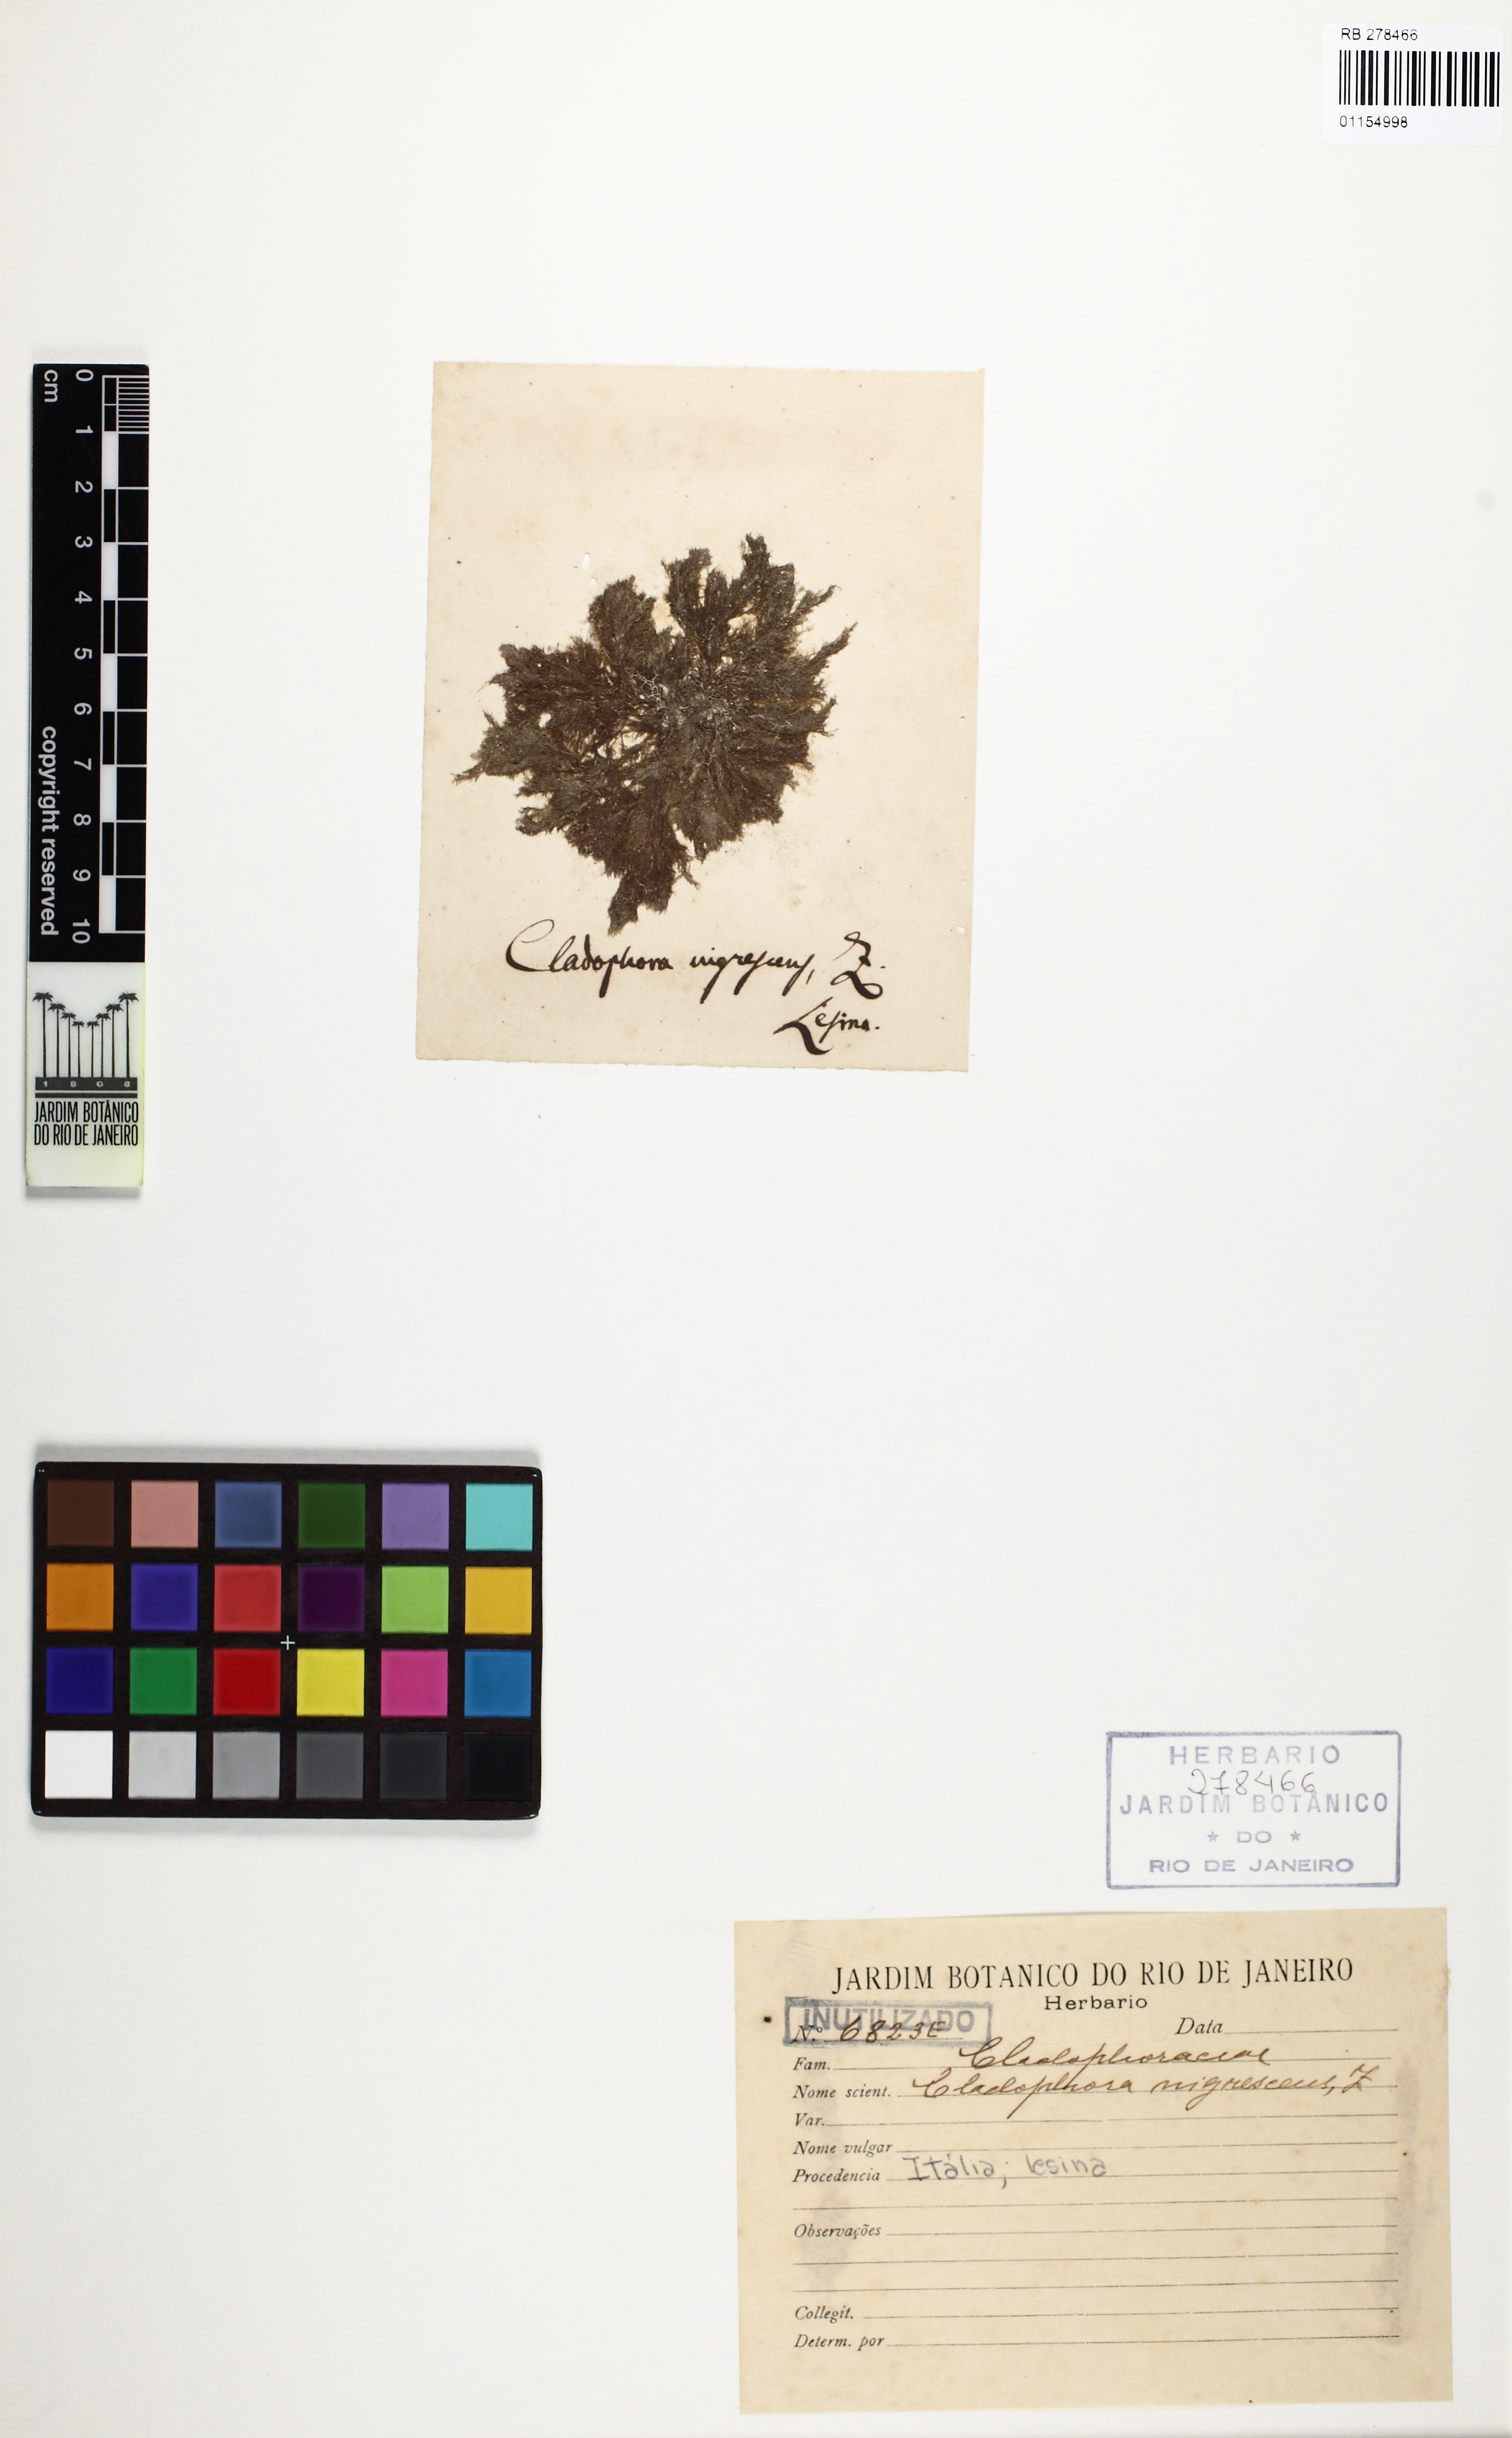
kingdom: Plantae
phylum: Chlorophyta
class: Ulvophyceae
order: Cladophorales
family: Cladophoraceae
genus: Cladophora
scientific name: Cladophora nigrescens
